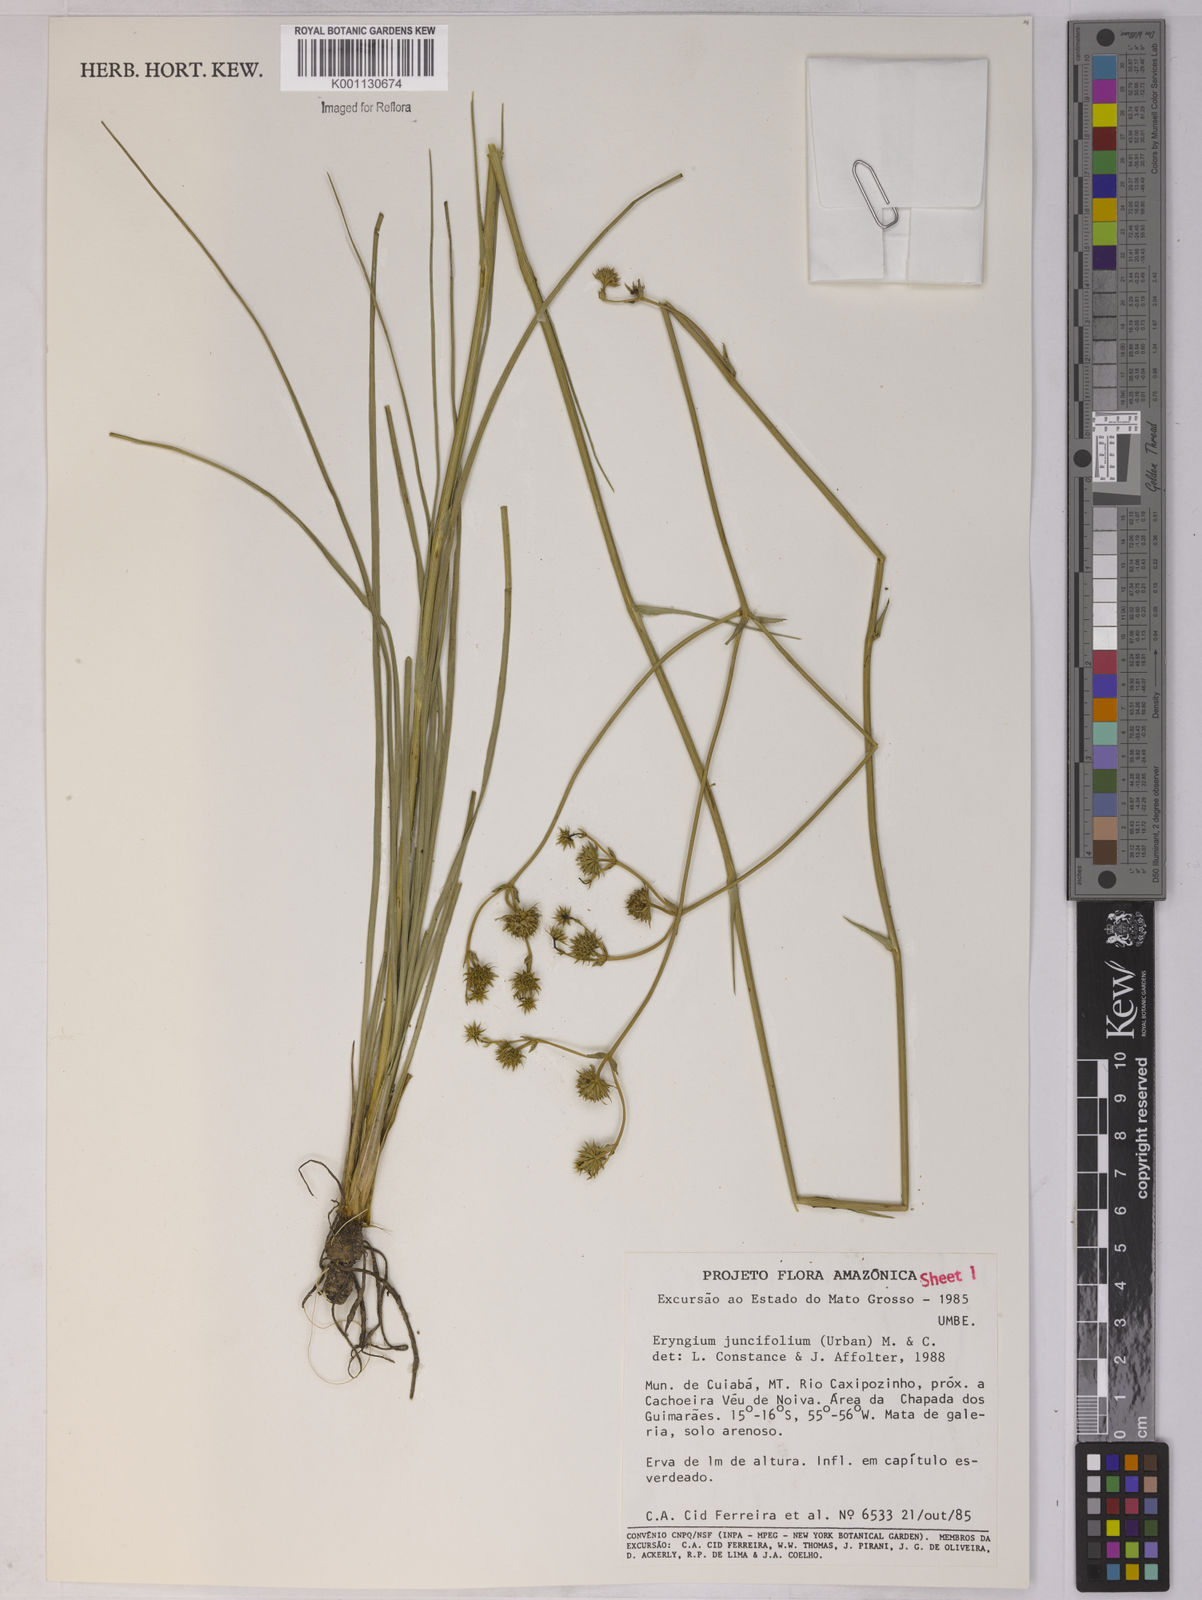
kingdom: Plantae
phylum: Tracheophyta
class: Magnoliopsida
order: Apiales
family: Apiaceae
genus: Eryngium
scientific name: Eryngium juncifolium
